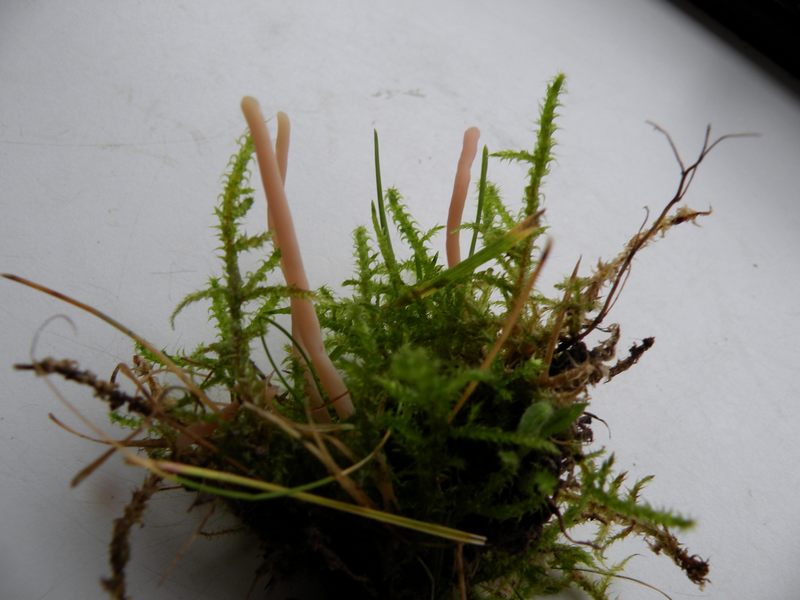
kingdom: Fungi
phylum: Basidiomycota
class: Agaricomycetes
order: Agaricales
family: Clavariaceae
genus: Clavaria
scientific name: Clavaria incarnata
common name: kødrød køllesvamp
